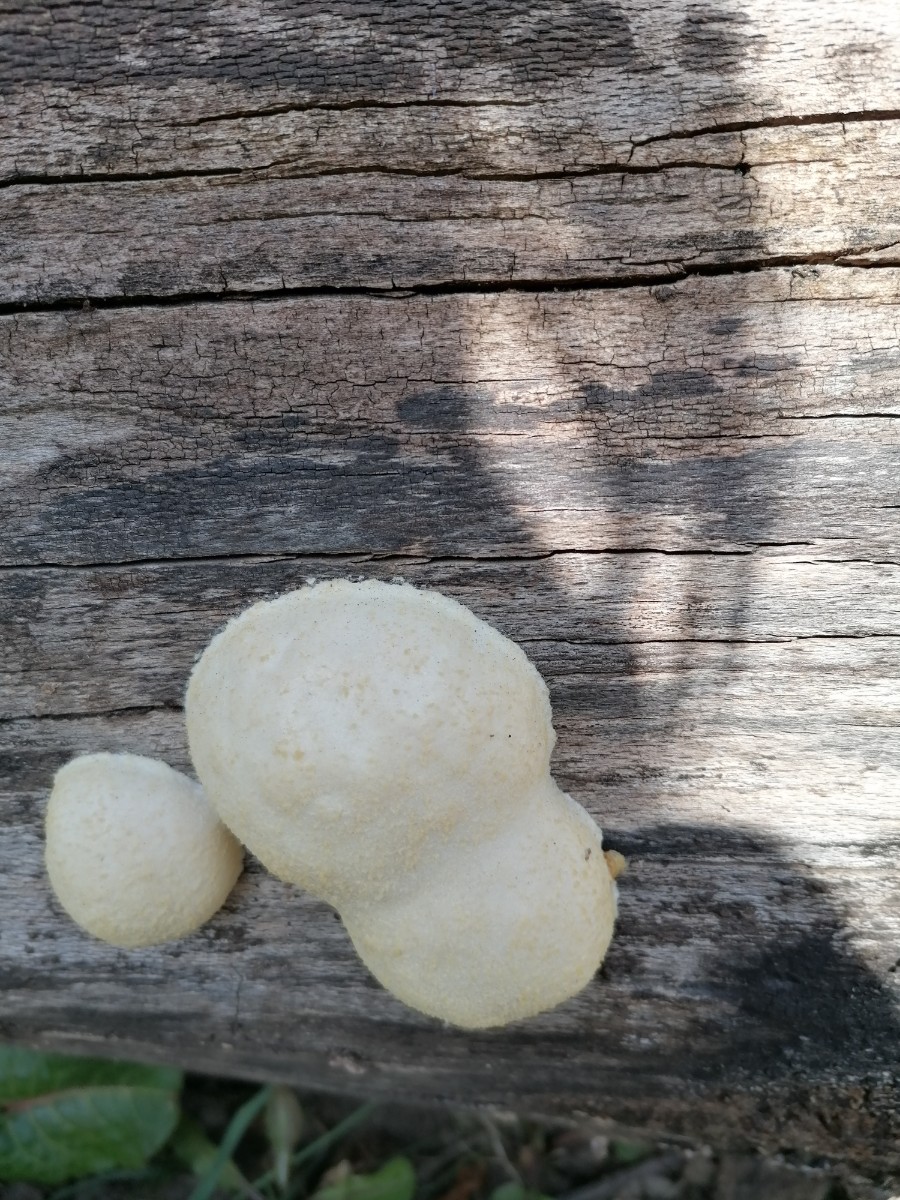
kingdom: Protozoa
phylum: Mycetozoa
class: Myxomycetes
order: Cribrariales
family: Tubiferaceae
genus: Reticularia
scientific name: Reticularia lycoperdon
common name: skinnende støvpude
